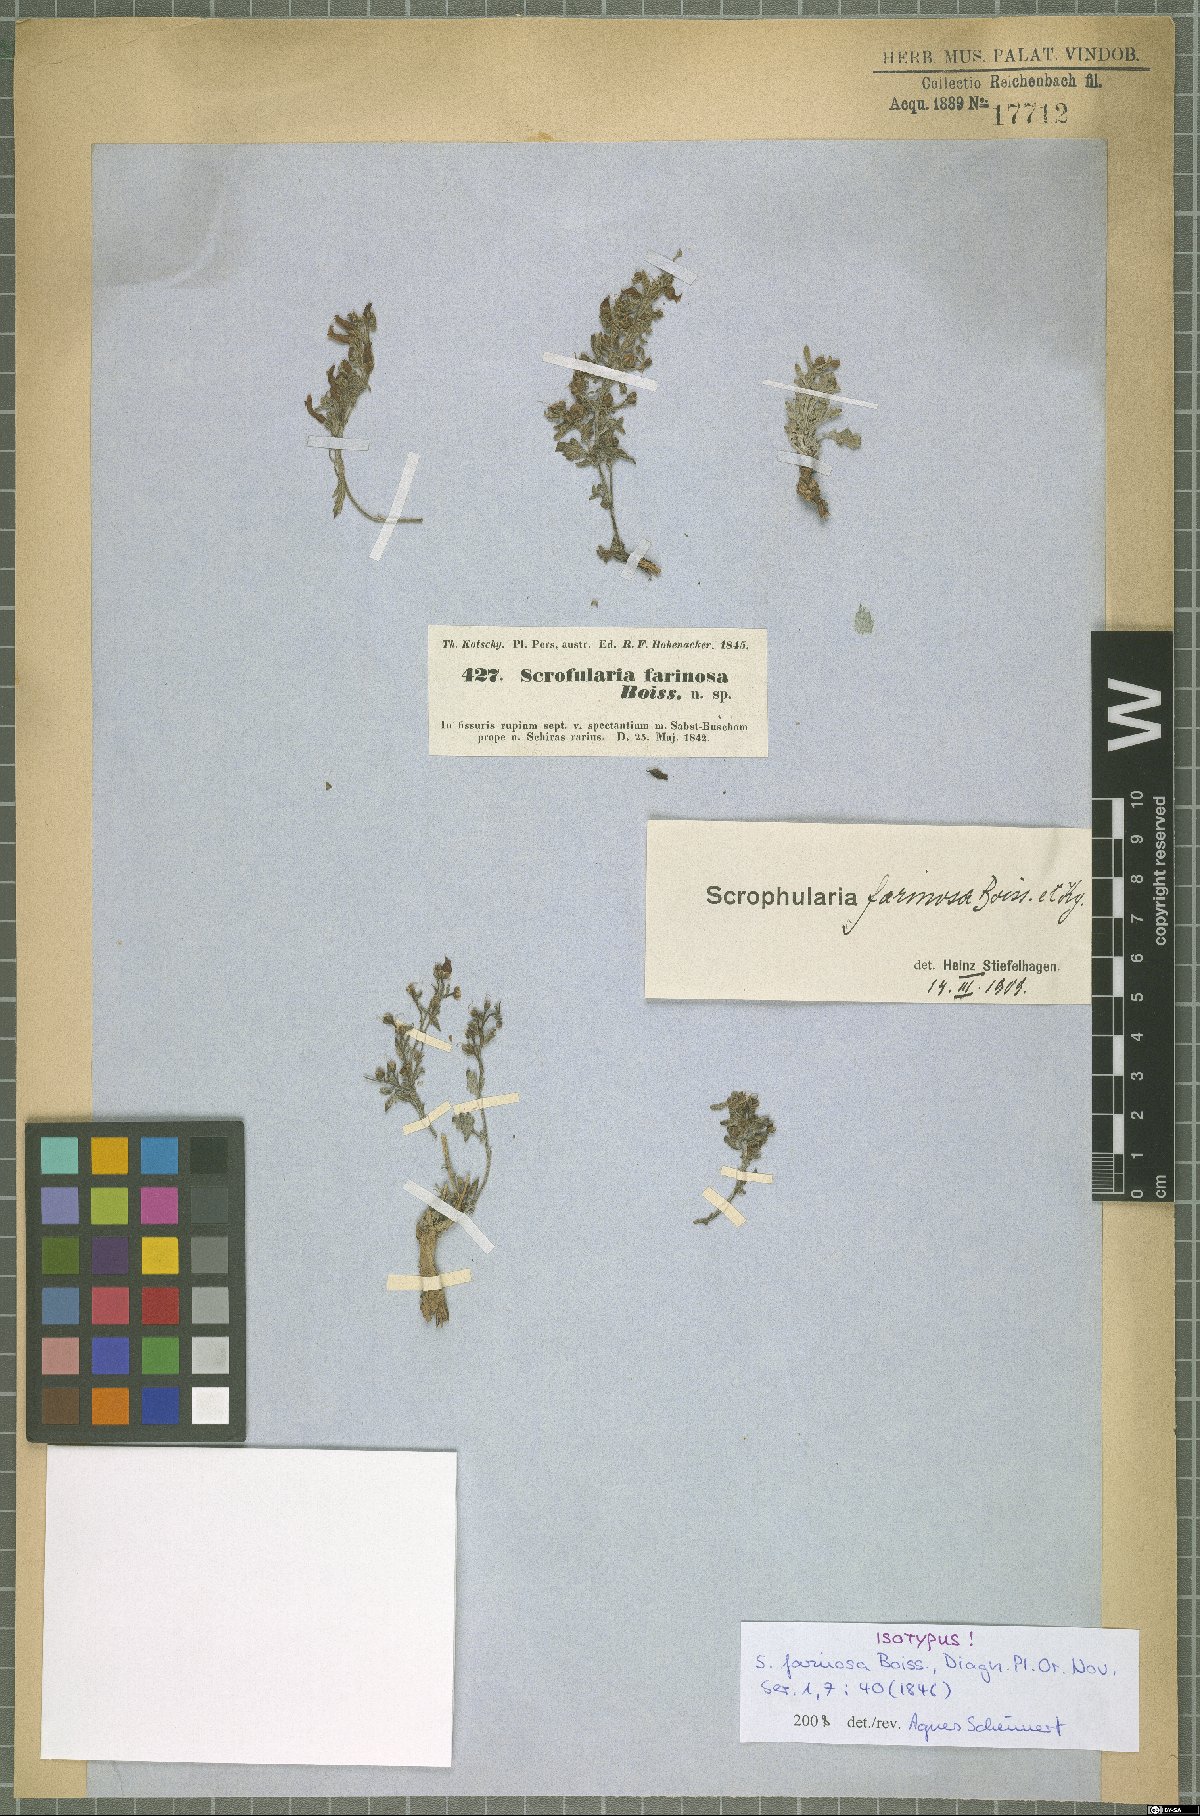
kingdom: Plantae
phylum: Tracheophyta
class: Magnoliopsida
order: Lamiales
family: Scrophulariaceae
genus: Scrophularia
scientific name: Scrophularia longiflora
